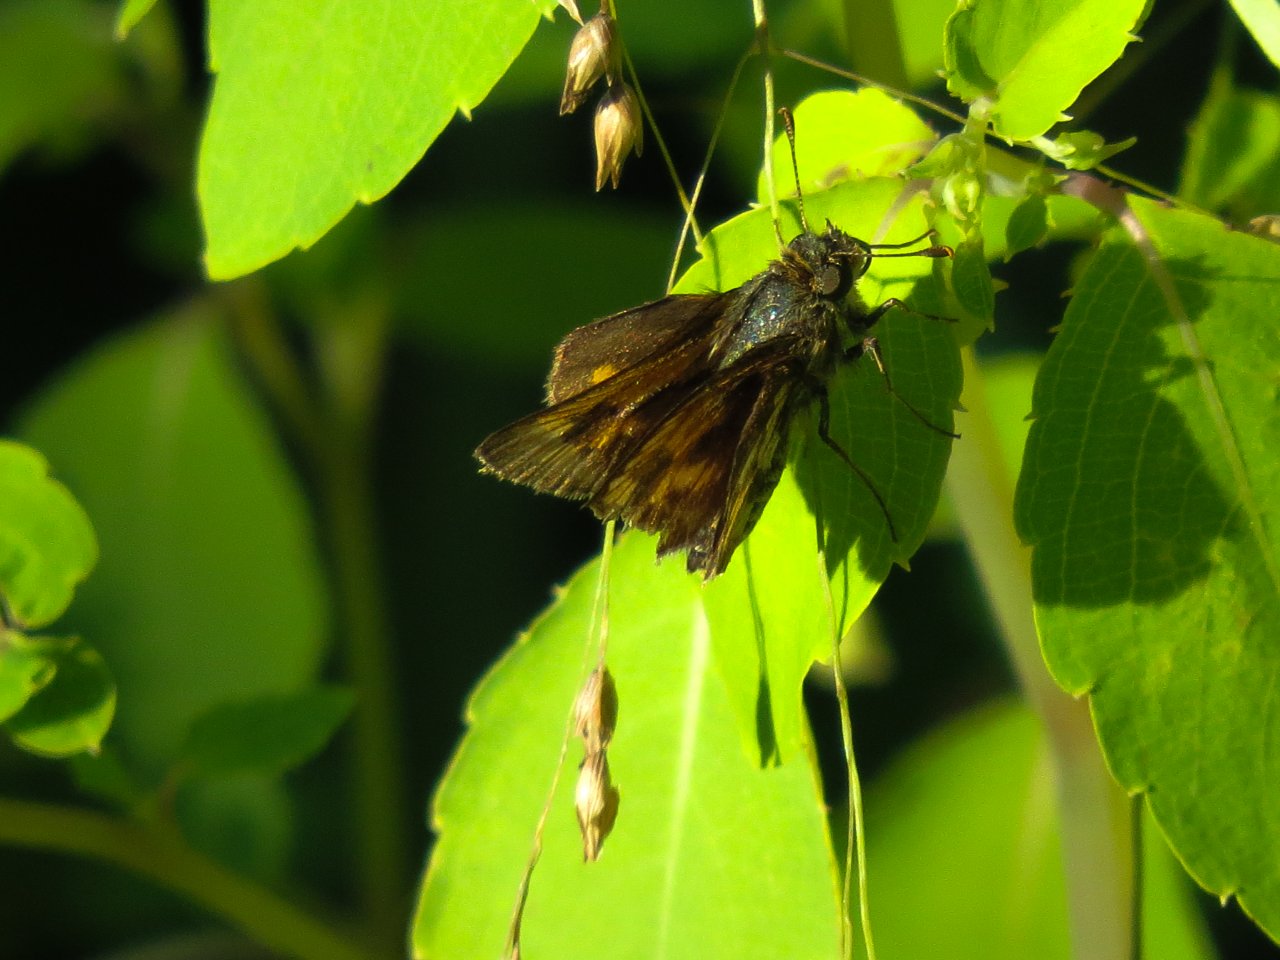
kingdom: Animalia
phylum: Arthropoda
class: Insecta
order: Lepidoptera
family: Hesperiidae
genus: Polites
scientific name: Polites coras
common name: Peck's Skipper
